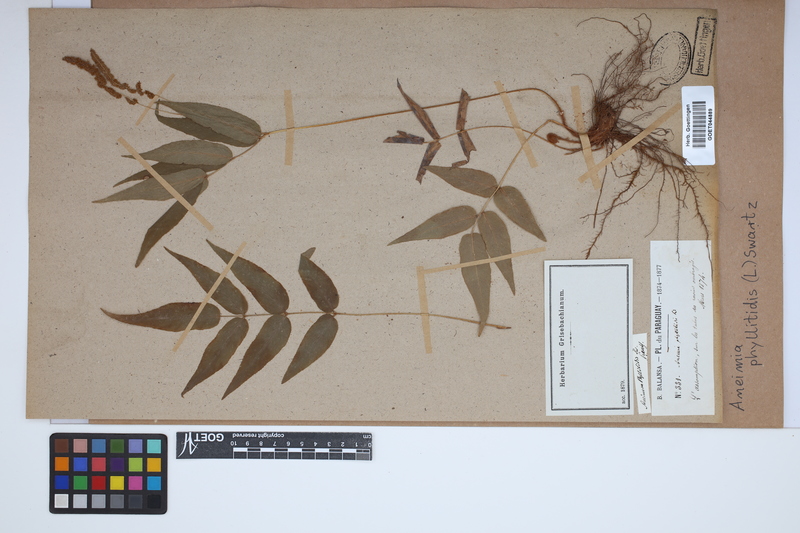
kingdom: Plantae
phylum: Tracheophyta
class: Polypodiopsida
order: Schizaeales
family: Anemiaceae
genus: Anemia
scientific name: Anemia phyllitidis
